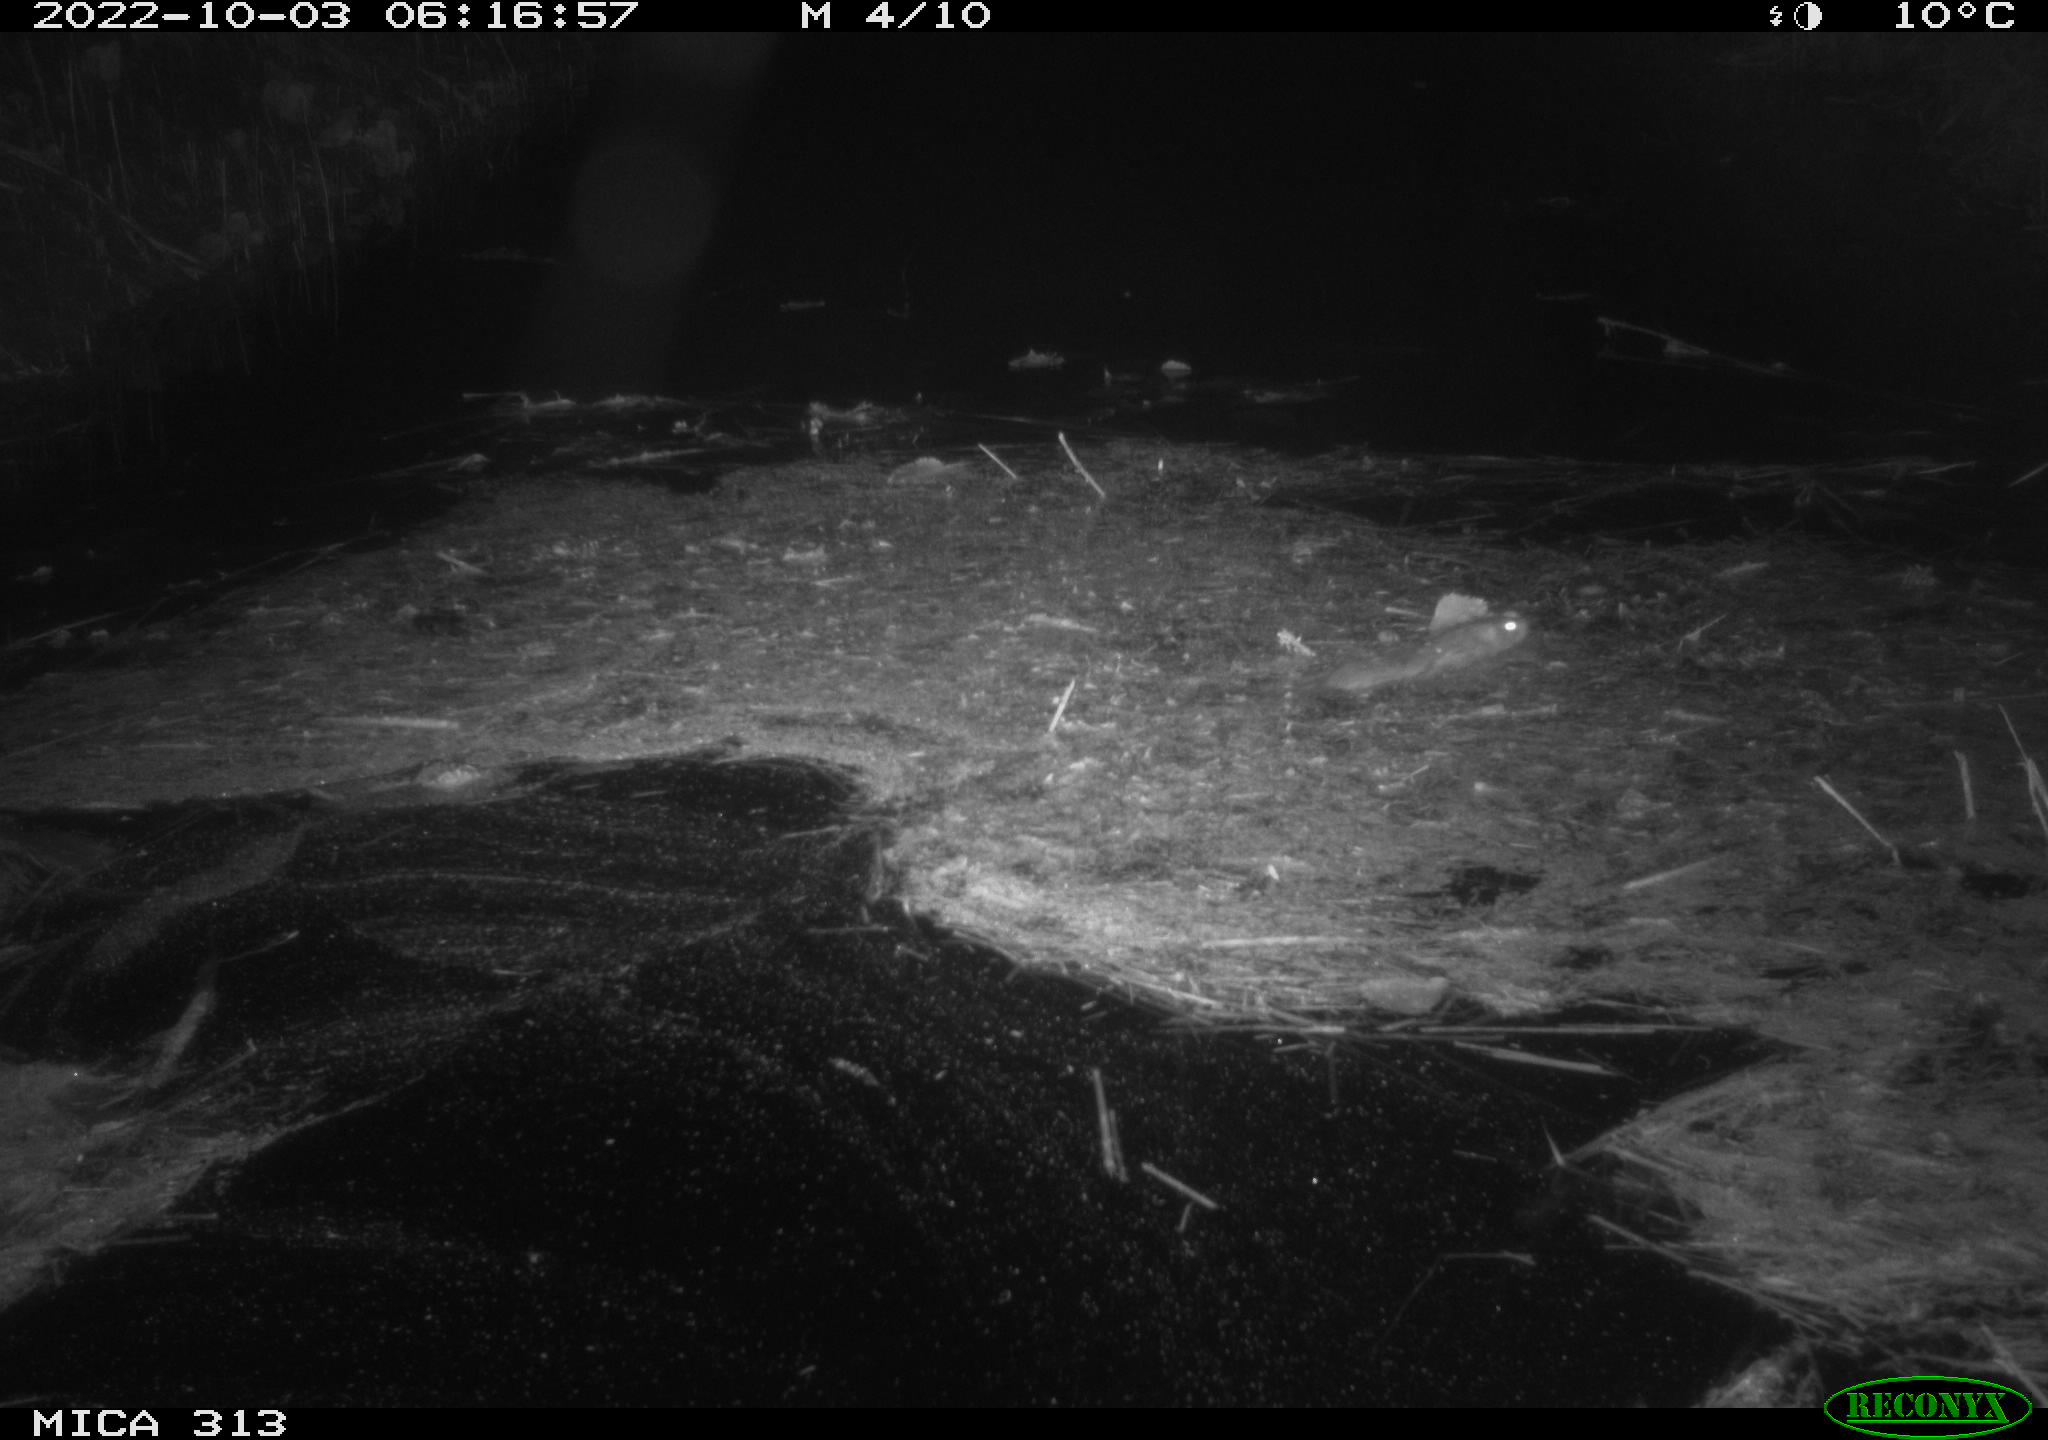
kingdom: Animalia
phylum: Chordata
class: Mammalia
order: Rodentia
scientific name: Rodentia
